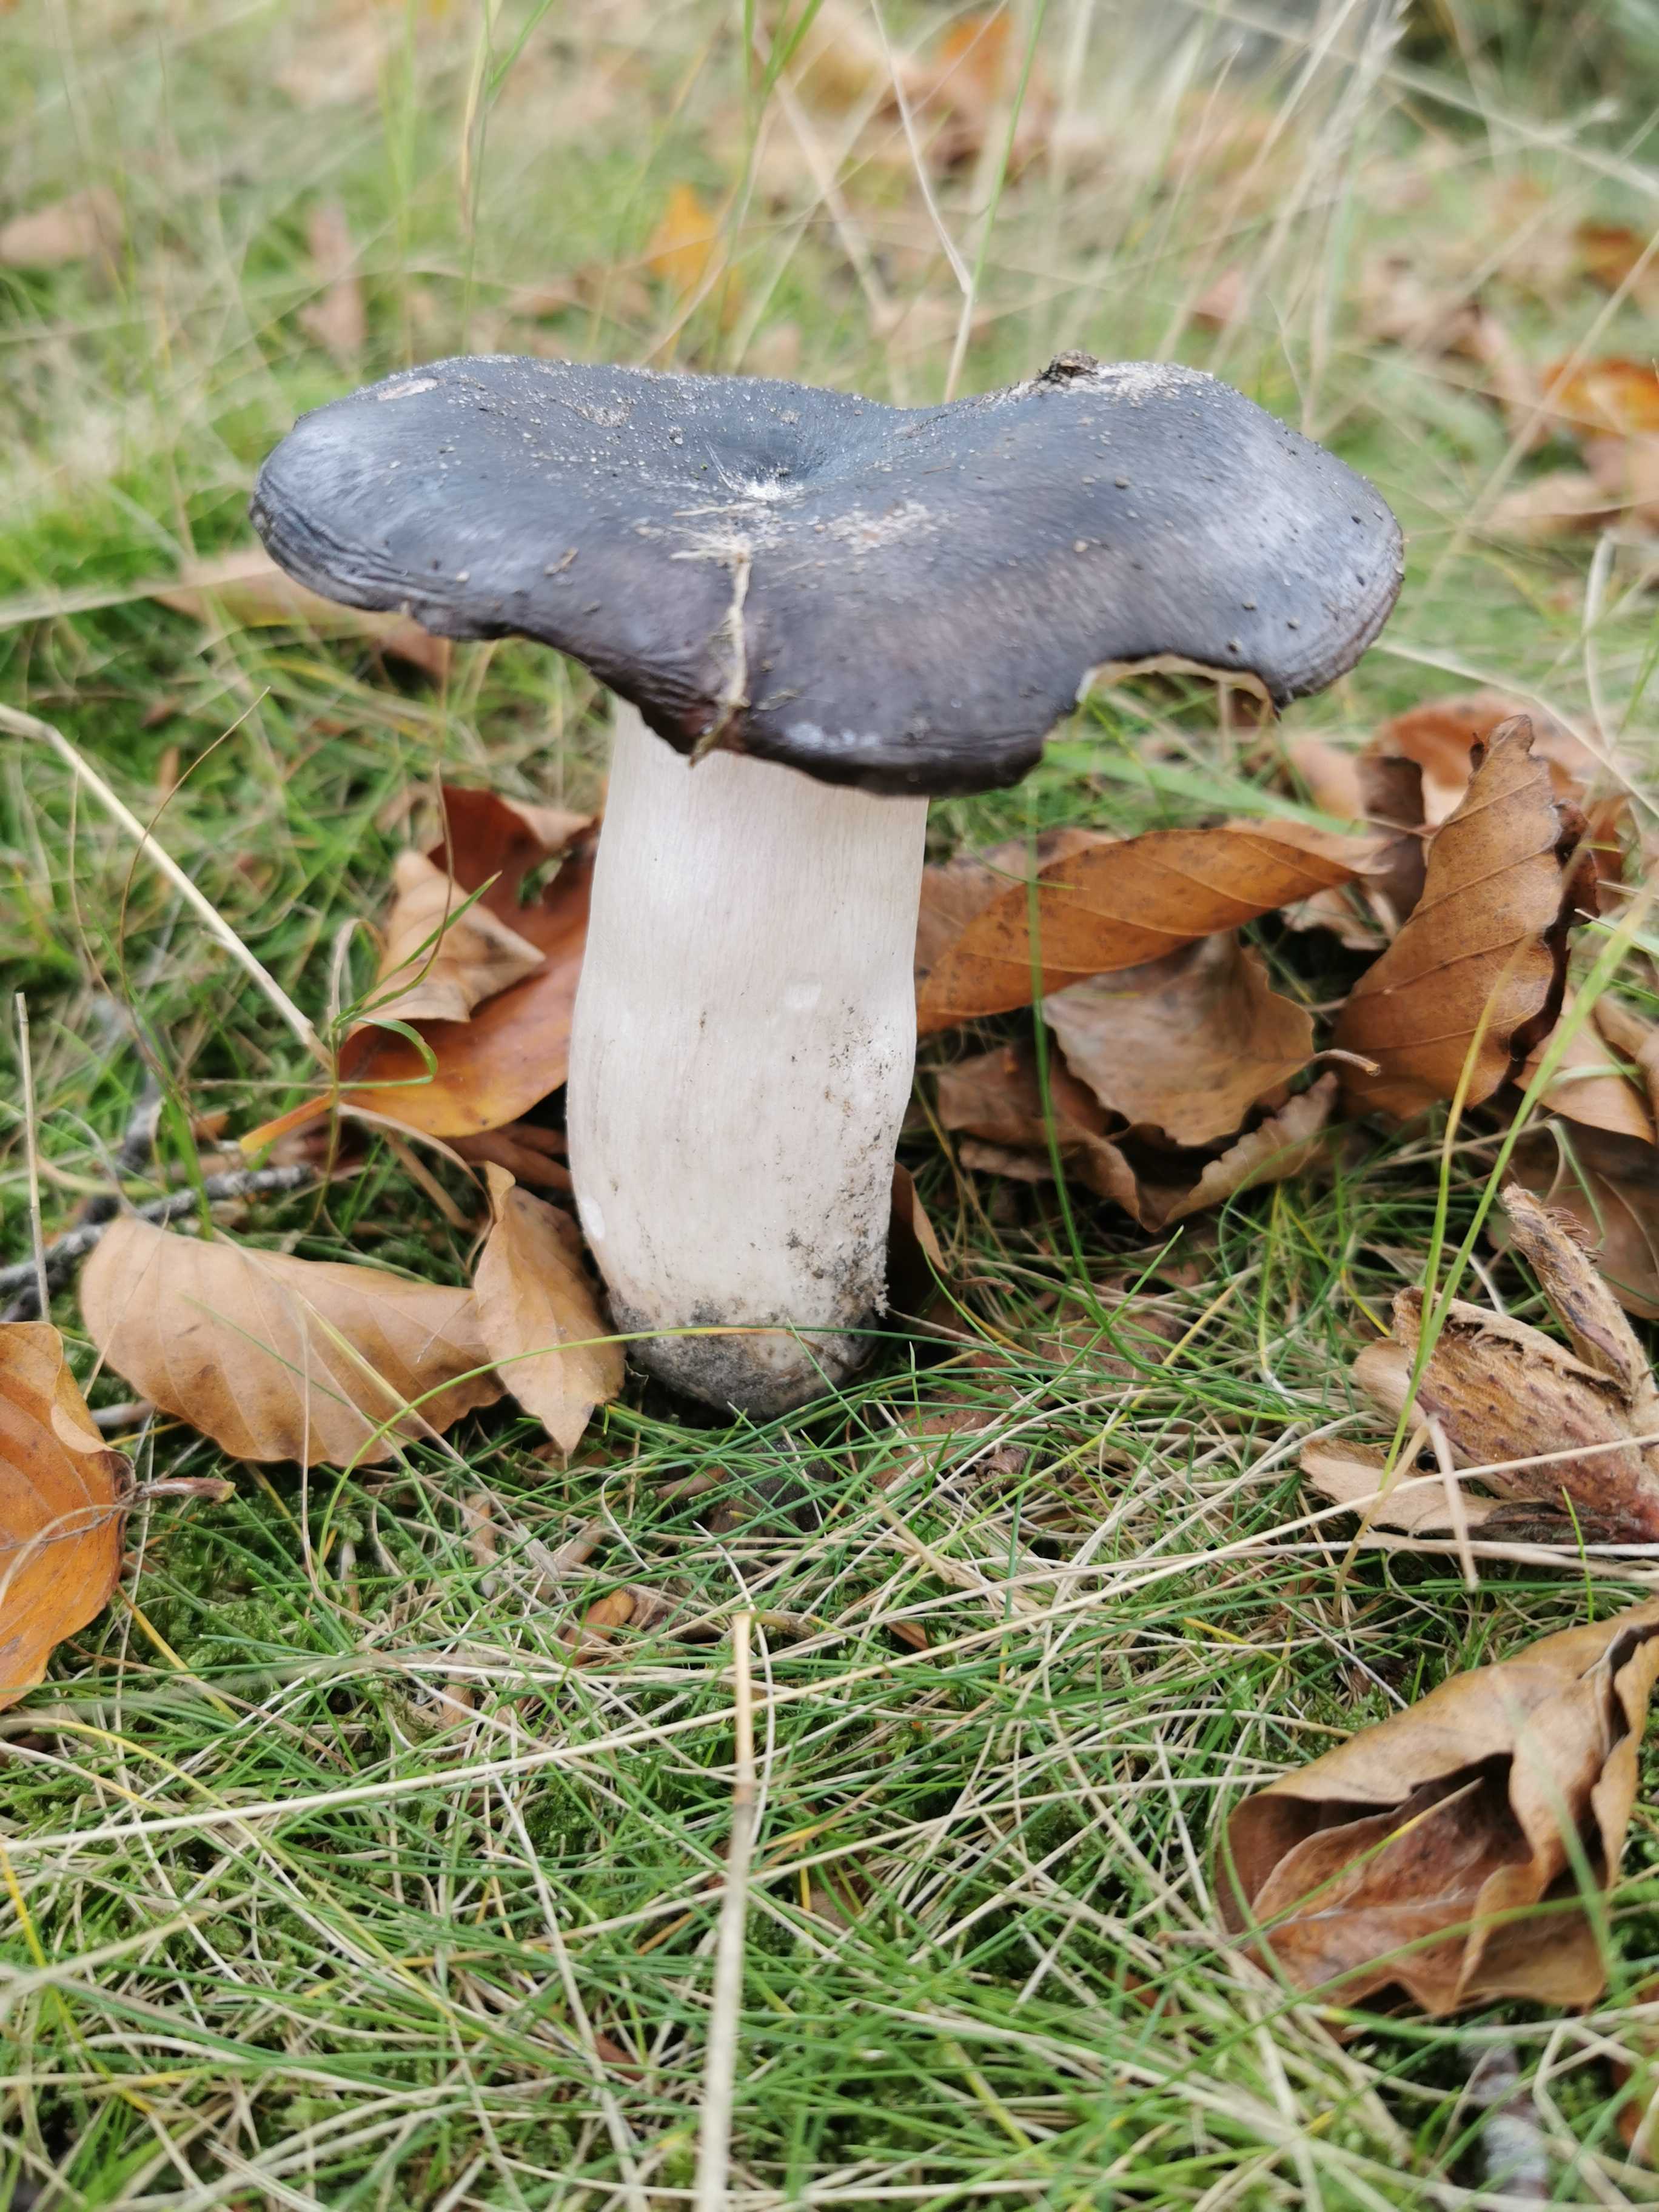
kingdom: Fungi
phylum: Basidiomycota
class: Agaricomycetes
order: Russulales
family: Russulaceae
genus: Russula
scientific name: Russula
